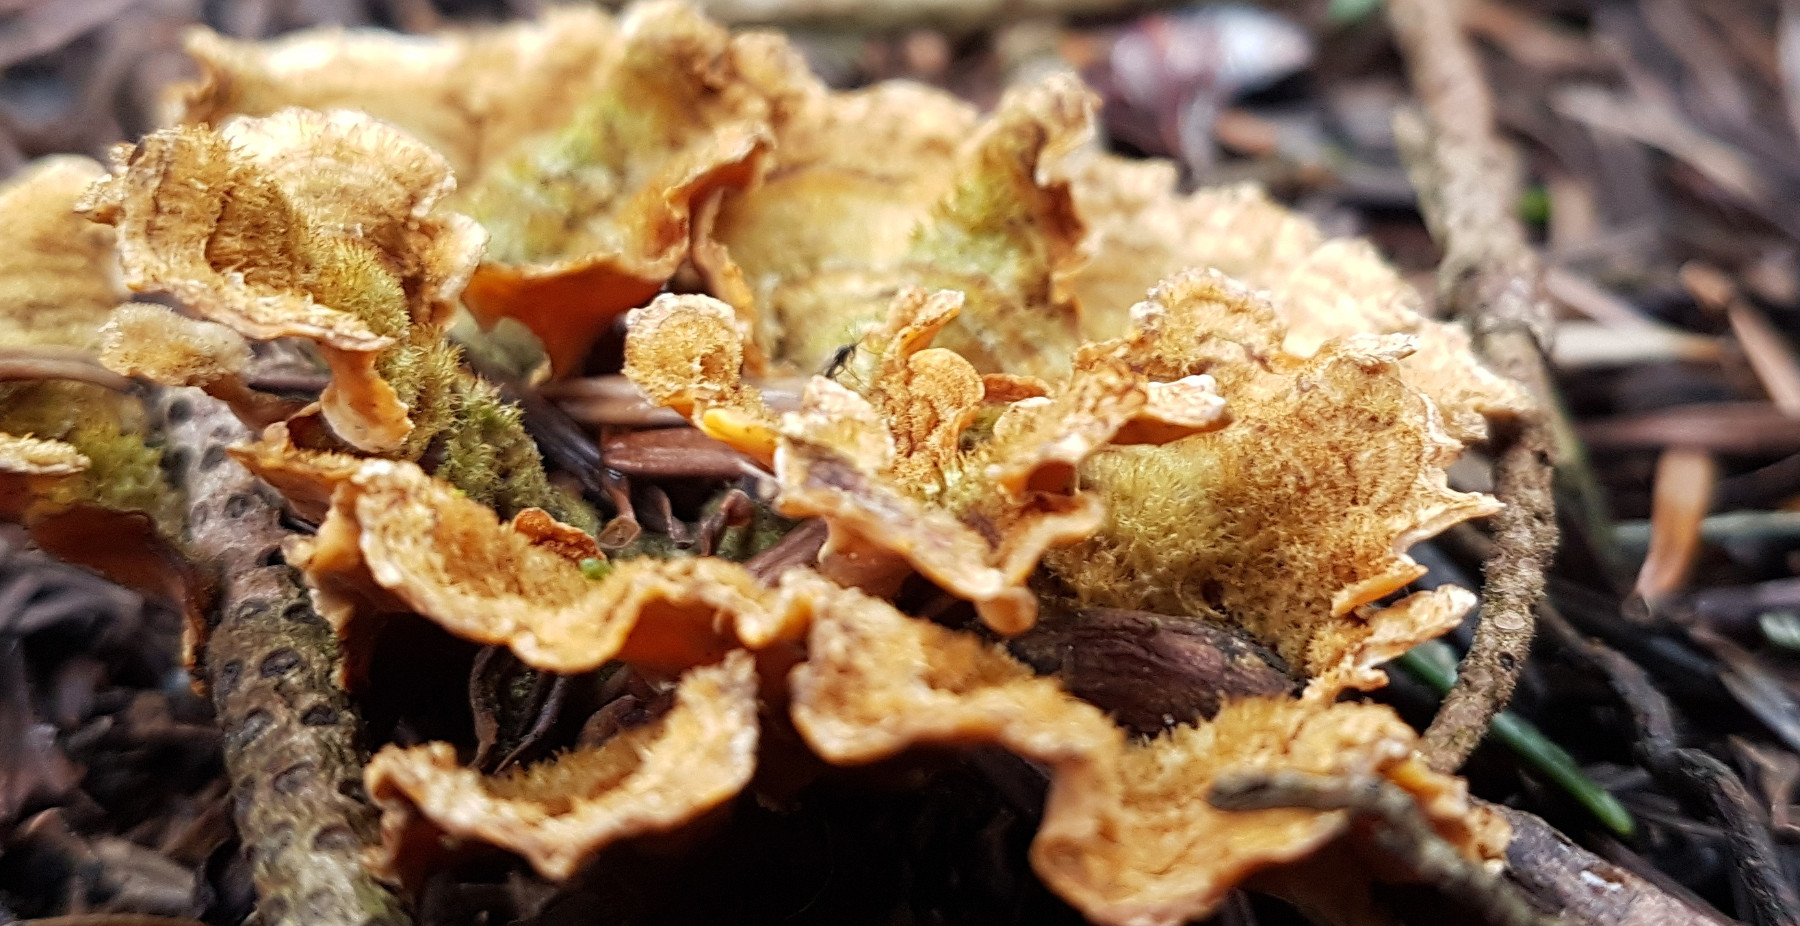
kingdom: Fungi
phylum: Basidiomycota
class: Agaricomycetes
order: Russulales
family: Stereaceae
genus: Stereum
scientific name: Stereum hirsutum
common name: håret lædersvamp
